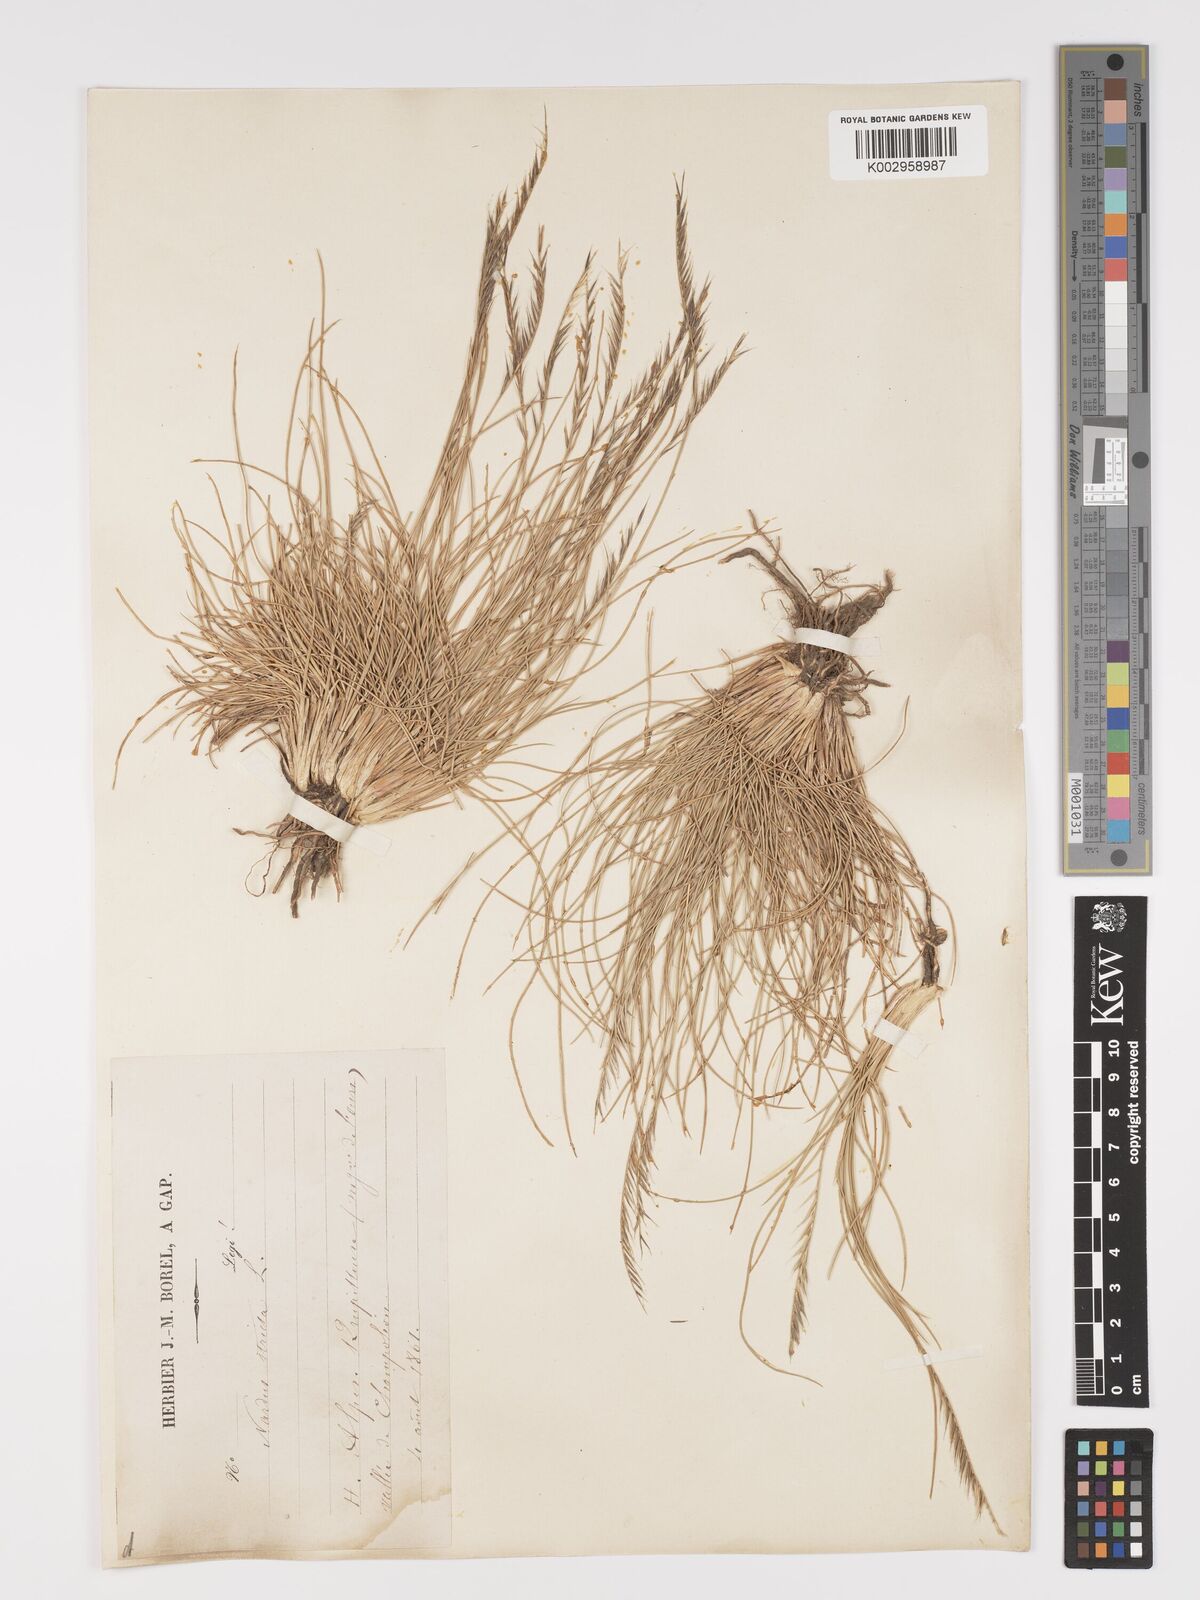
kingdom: Plantae
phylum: Tracheophyta
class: Liliopsida
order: Poales
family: Poaceae
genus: Nardus
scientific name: Nardus stricta
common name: Mat-grass
